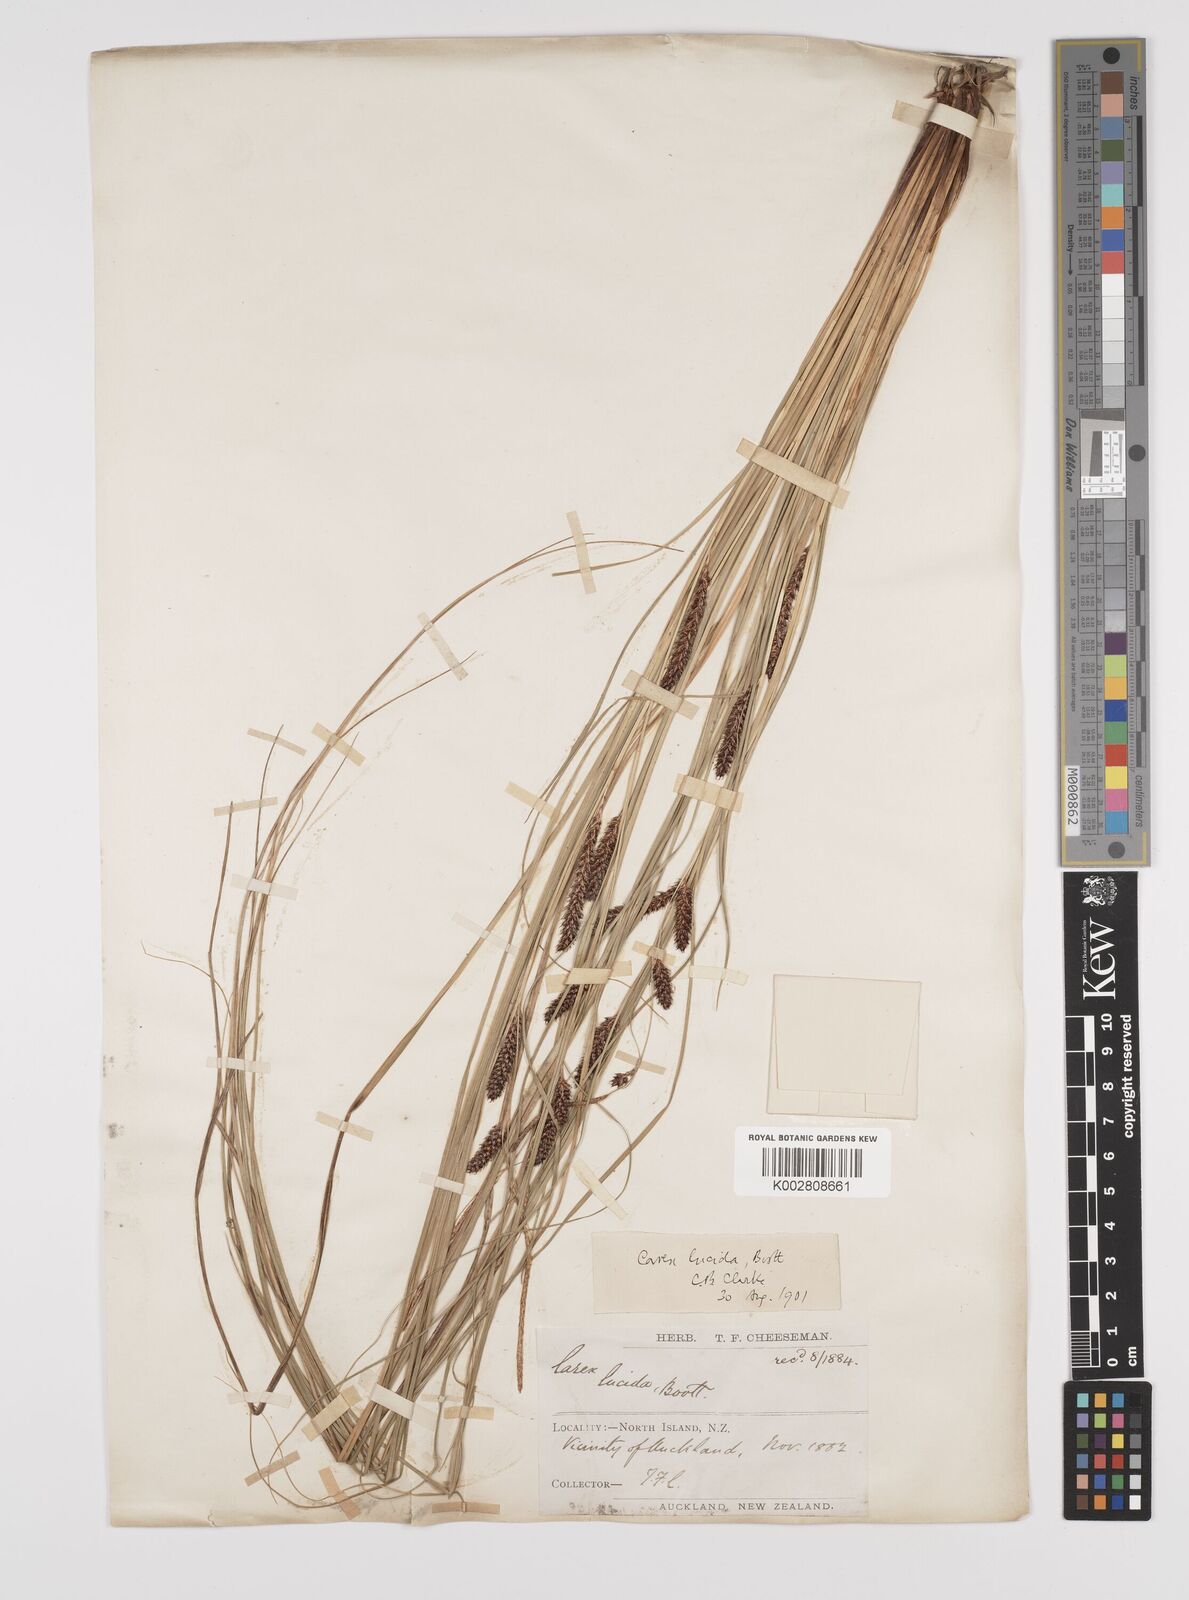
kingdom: Plantae
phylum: Tracheophyta
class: Liliopsida
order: Poales
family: Cyperaceae
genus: Carex
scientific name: Carex flagellifera
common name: Glen murray tussock
